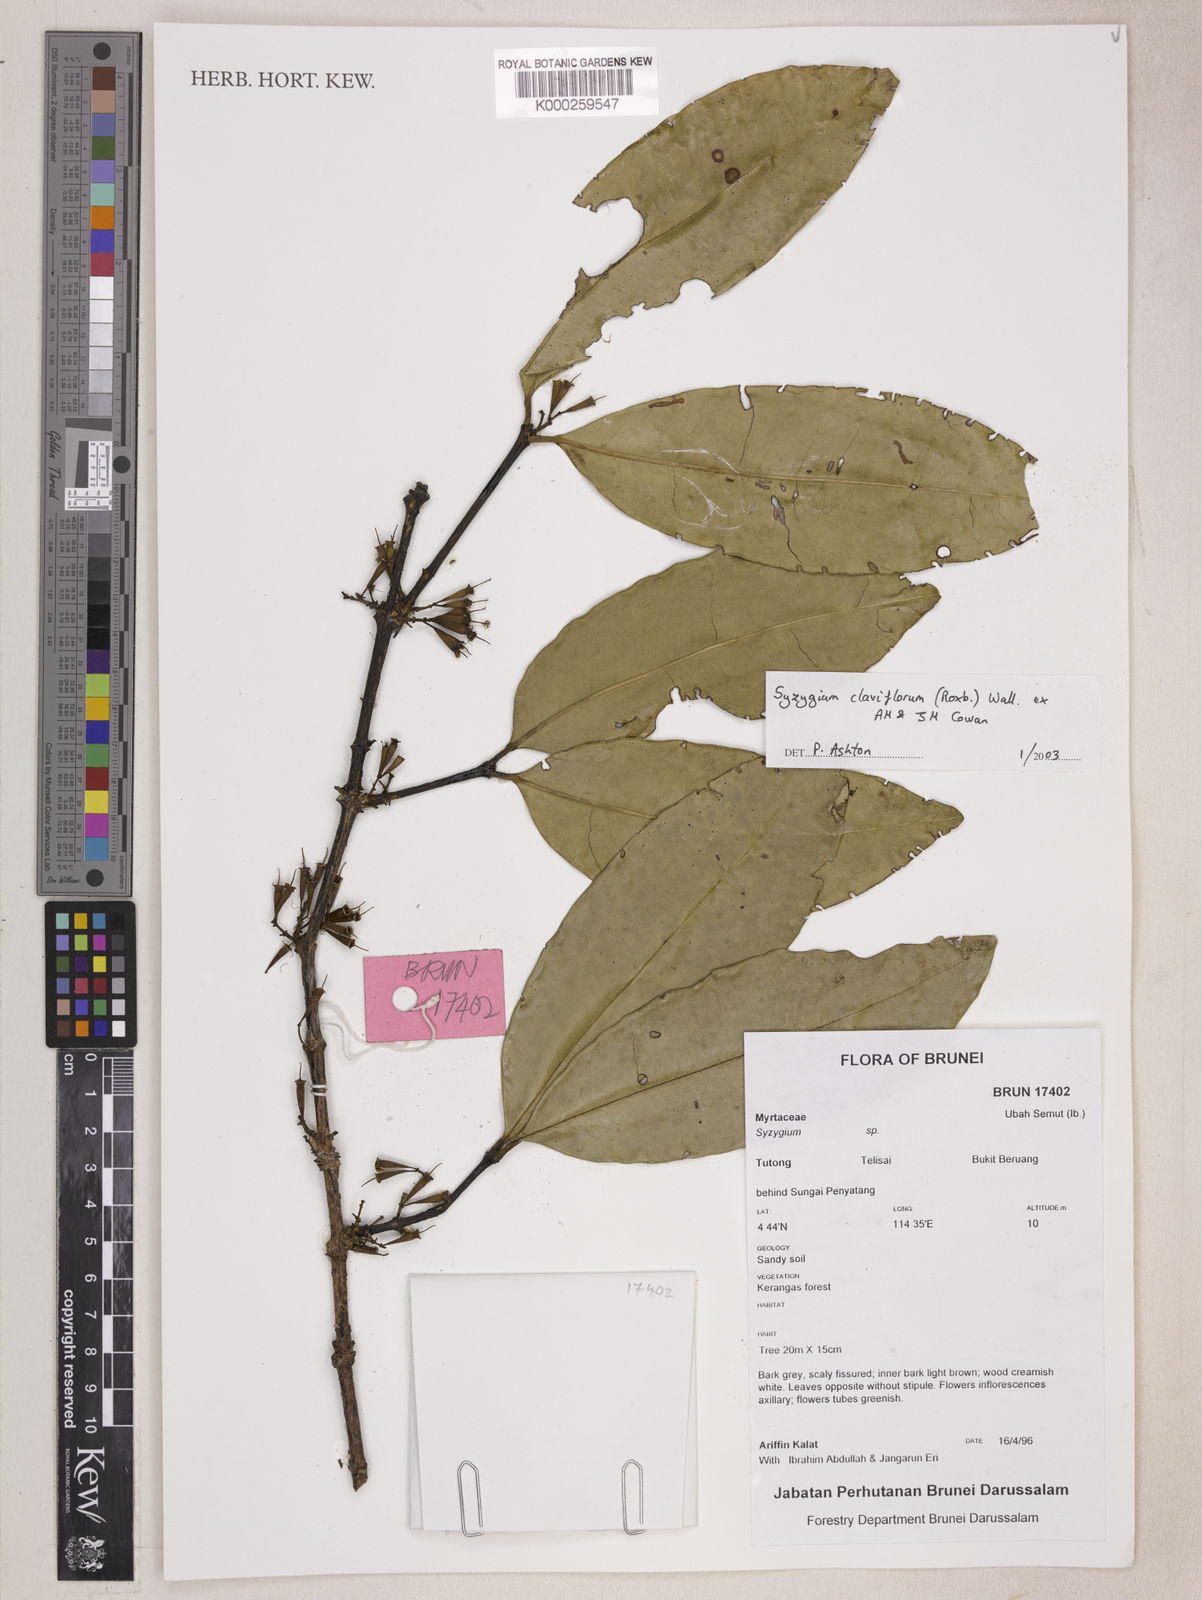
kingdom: Plantae
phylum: Tracheophyta
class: Magnoliopsida
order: Myrtales
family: Myrtaceae
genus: Syzygium
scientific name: Syzygium claviflorum
